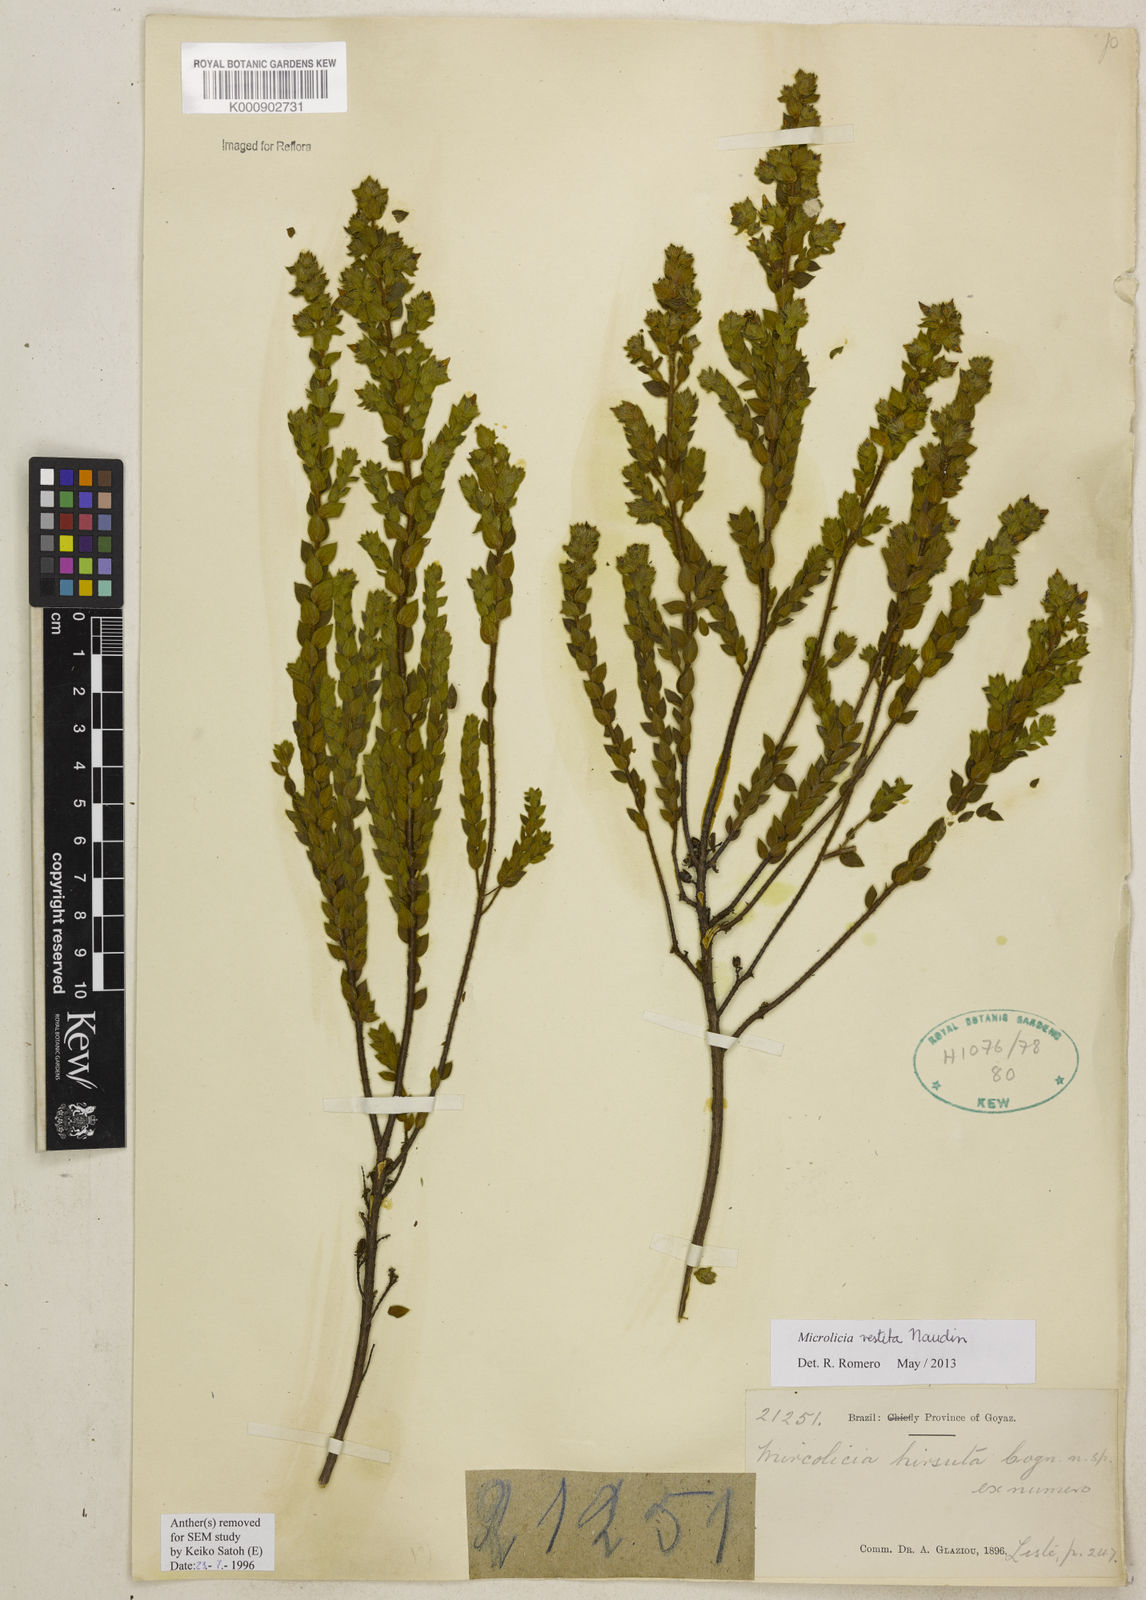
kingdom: Plantae
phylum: Tracheophyta
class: Magnoliopsida
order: Myrtales
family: Melastomataceae
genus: Microlicia
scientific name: Microlicia hirsuta
